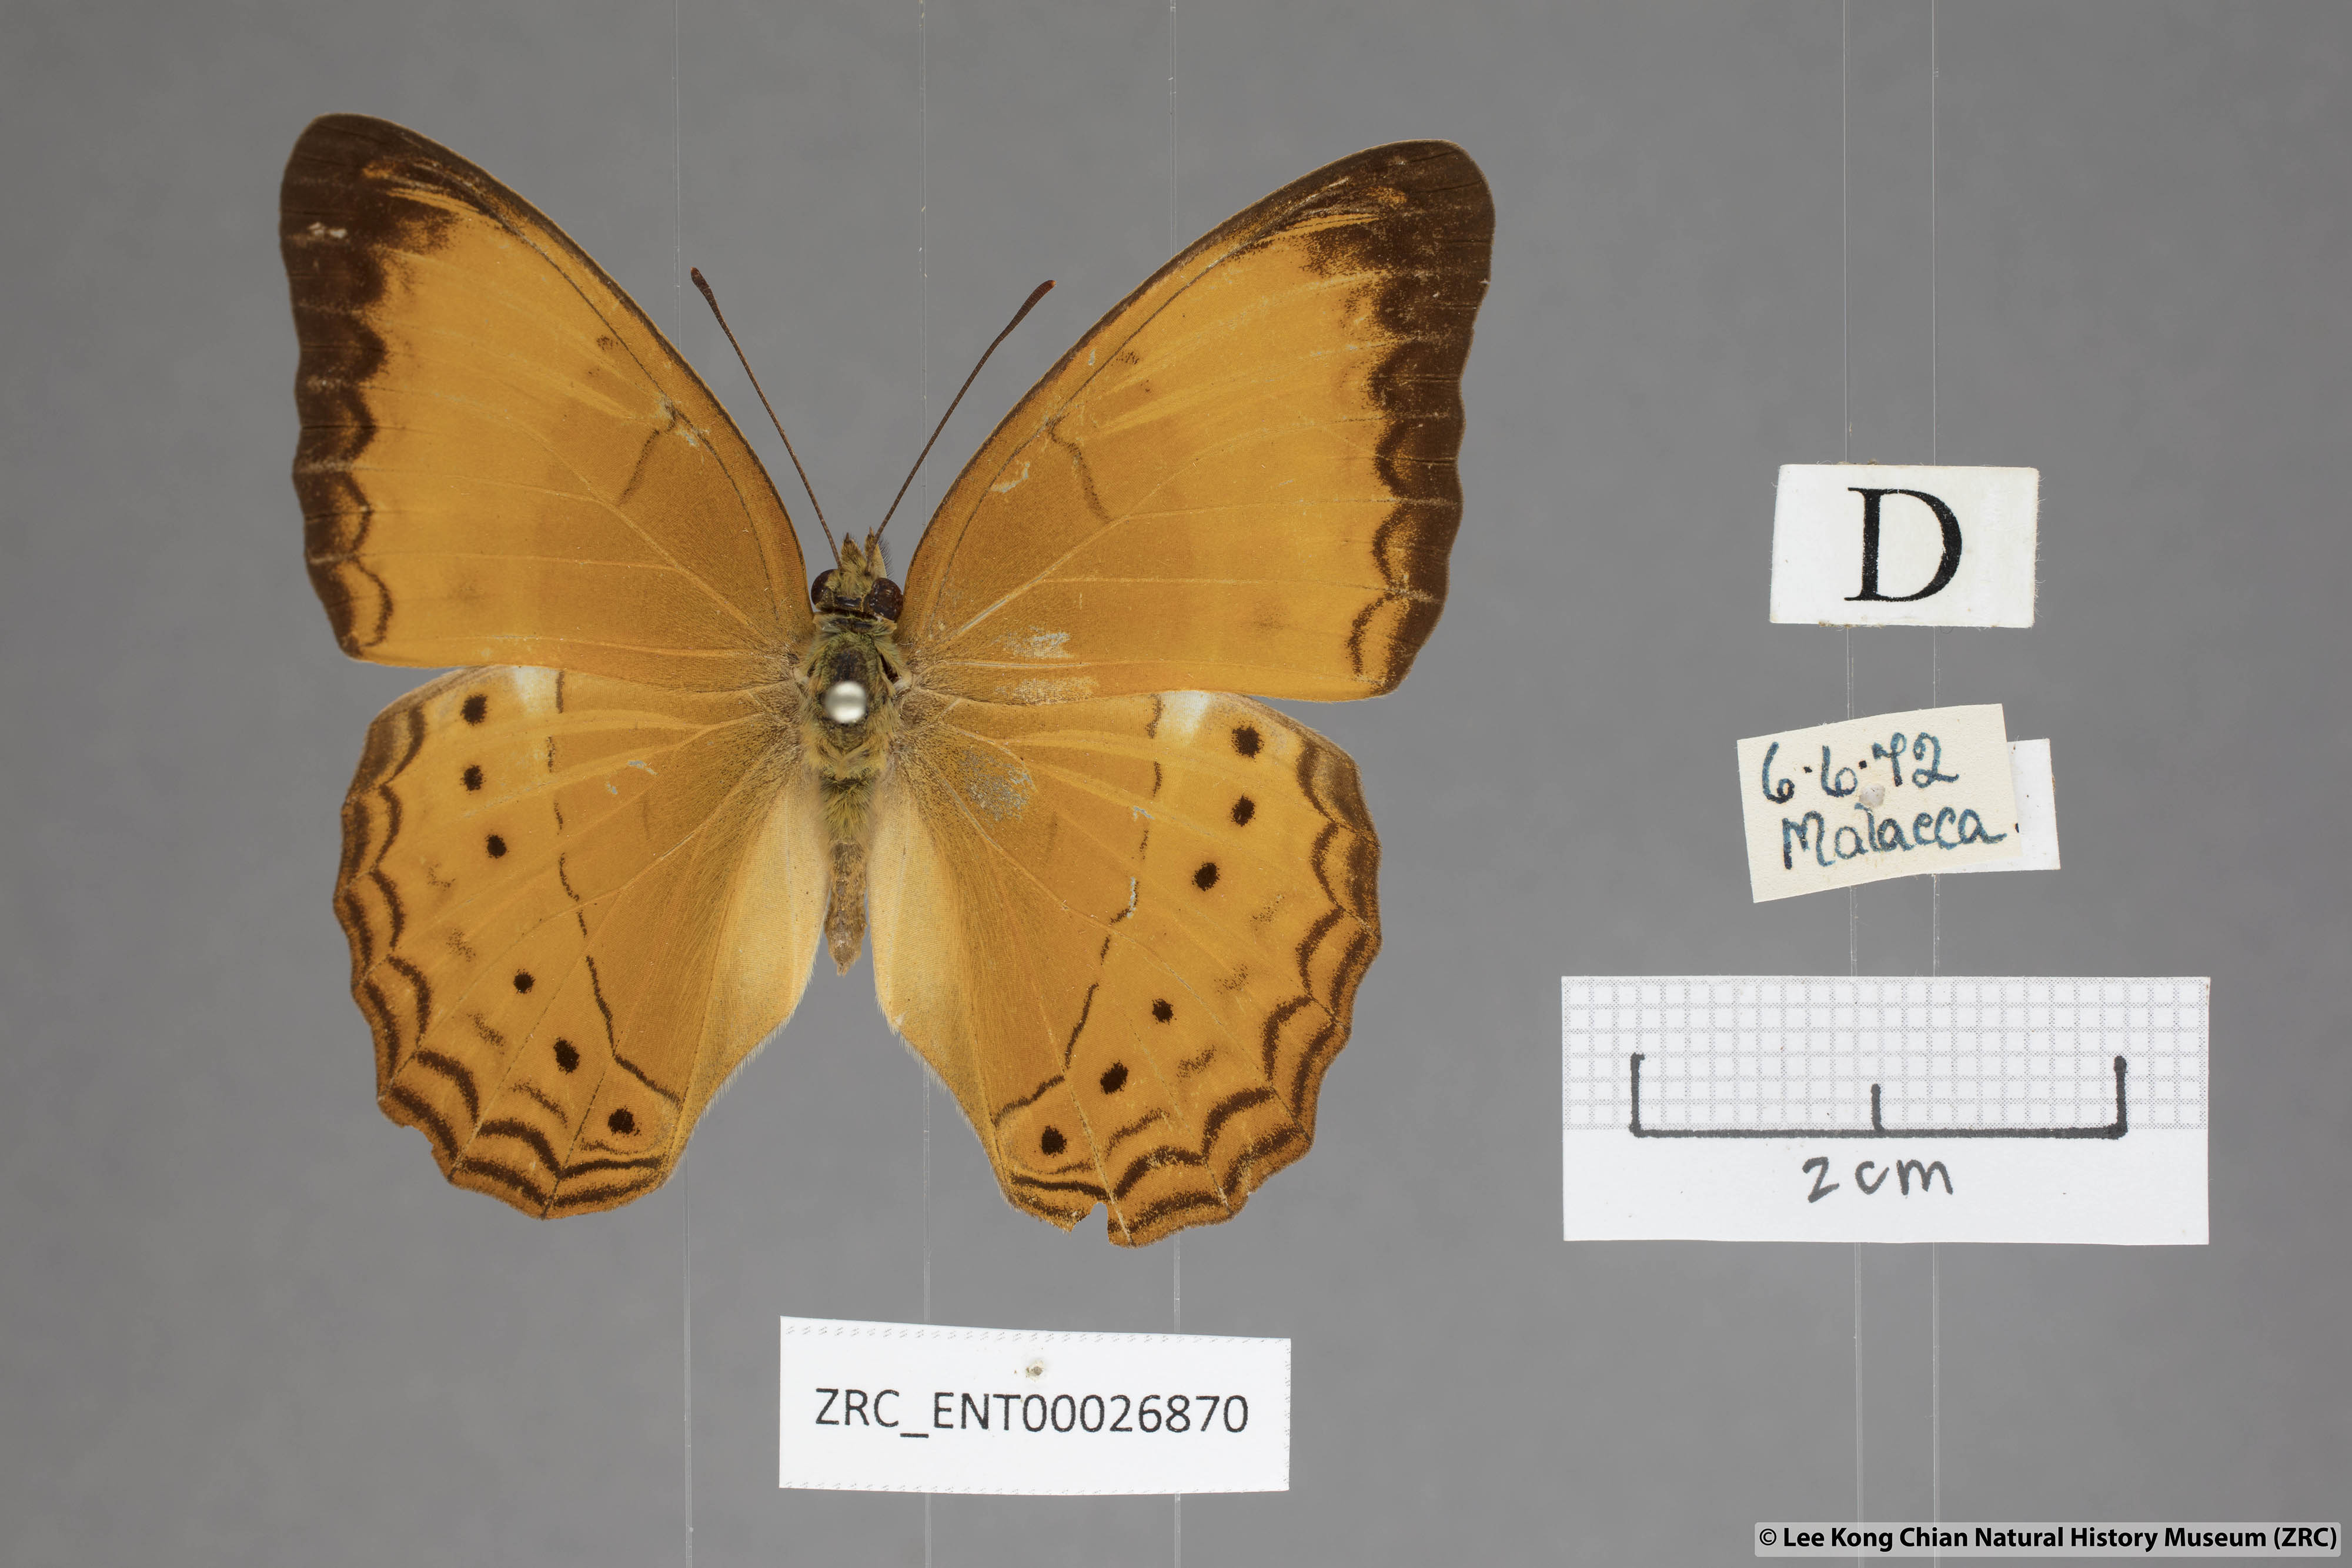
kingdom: Animalia
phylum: Arthropoda
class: Insecta
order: Lepidoptera
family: Nymphalidae
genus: Cirrochroa
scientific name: Cirrochroa malaya
